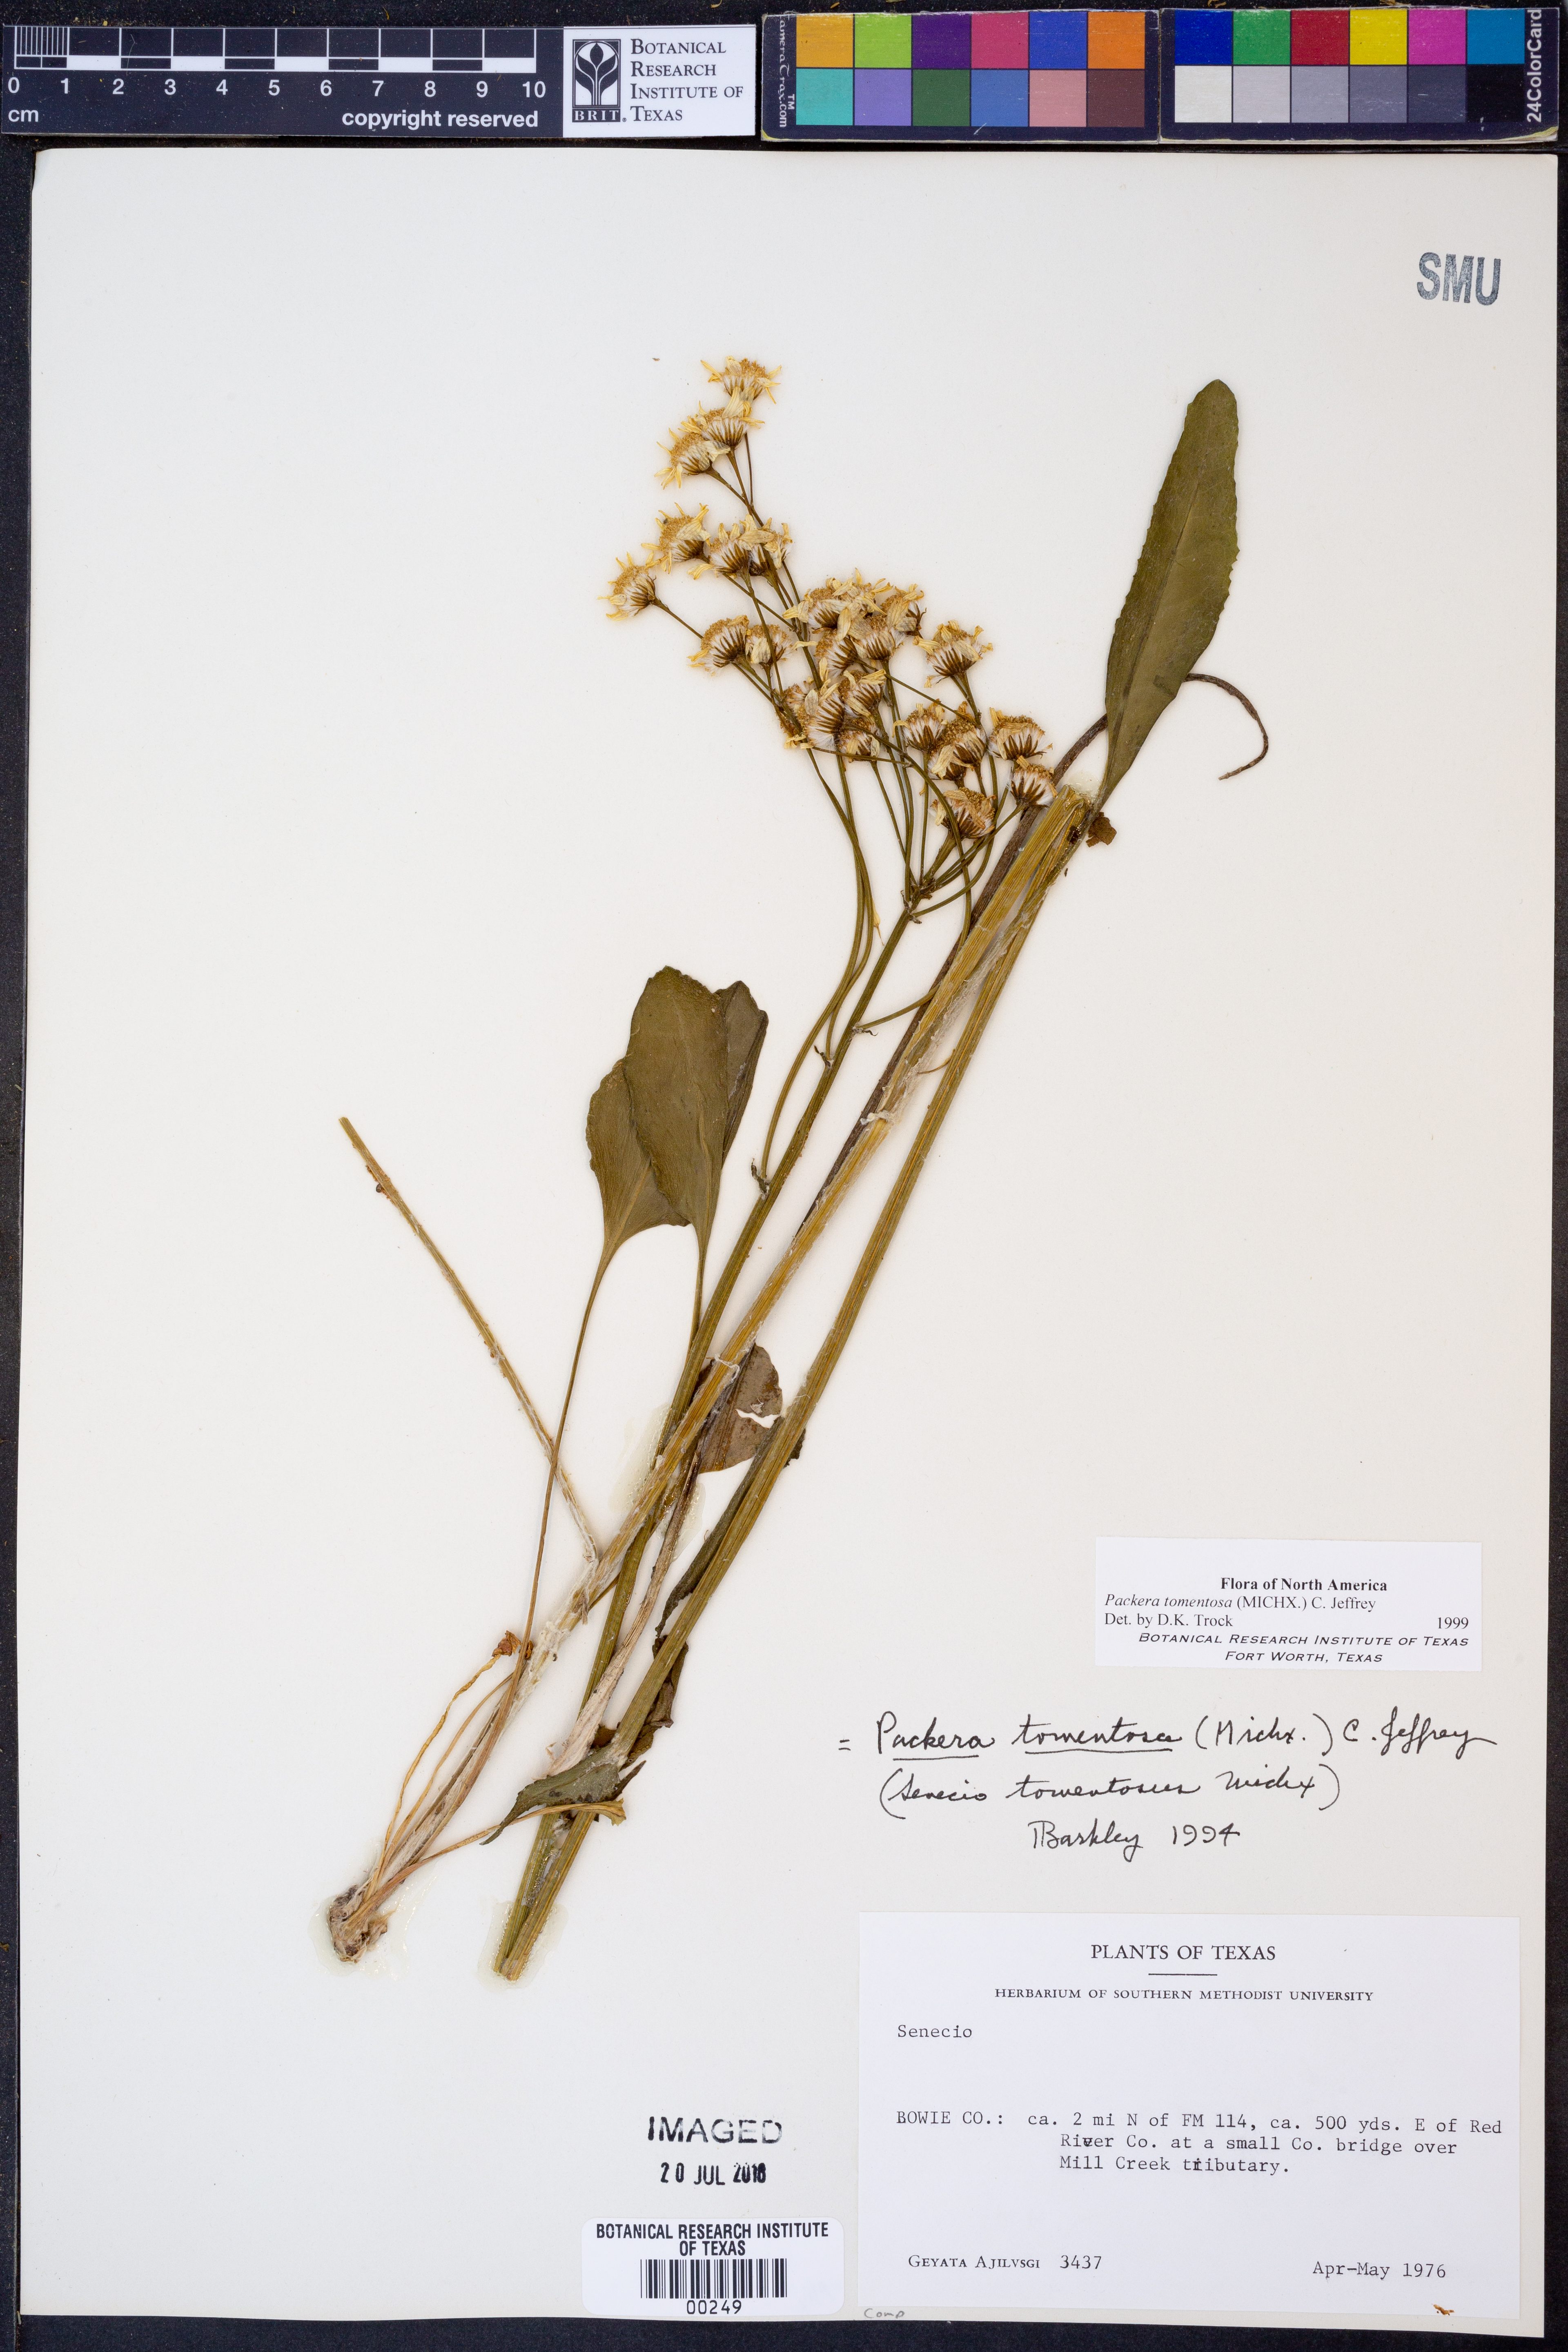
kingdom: Plantae
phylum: Tracheophyta
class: Magnoliopsida
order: Asterales
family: Asteraceae
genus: Packera
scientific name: Packera dubia
